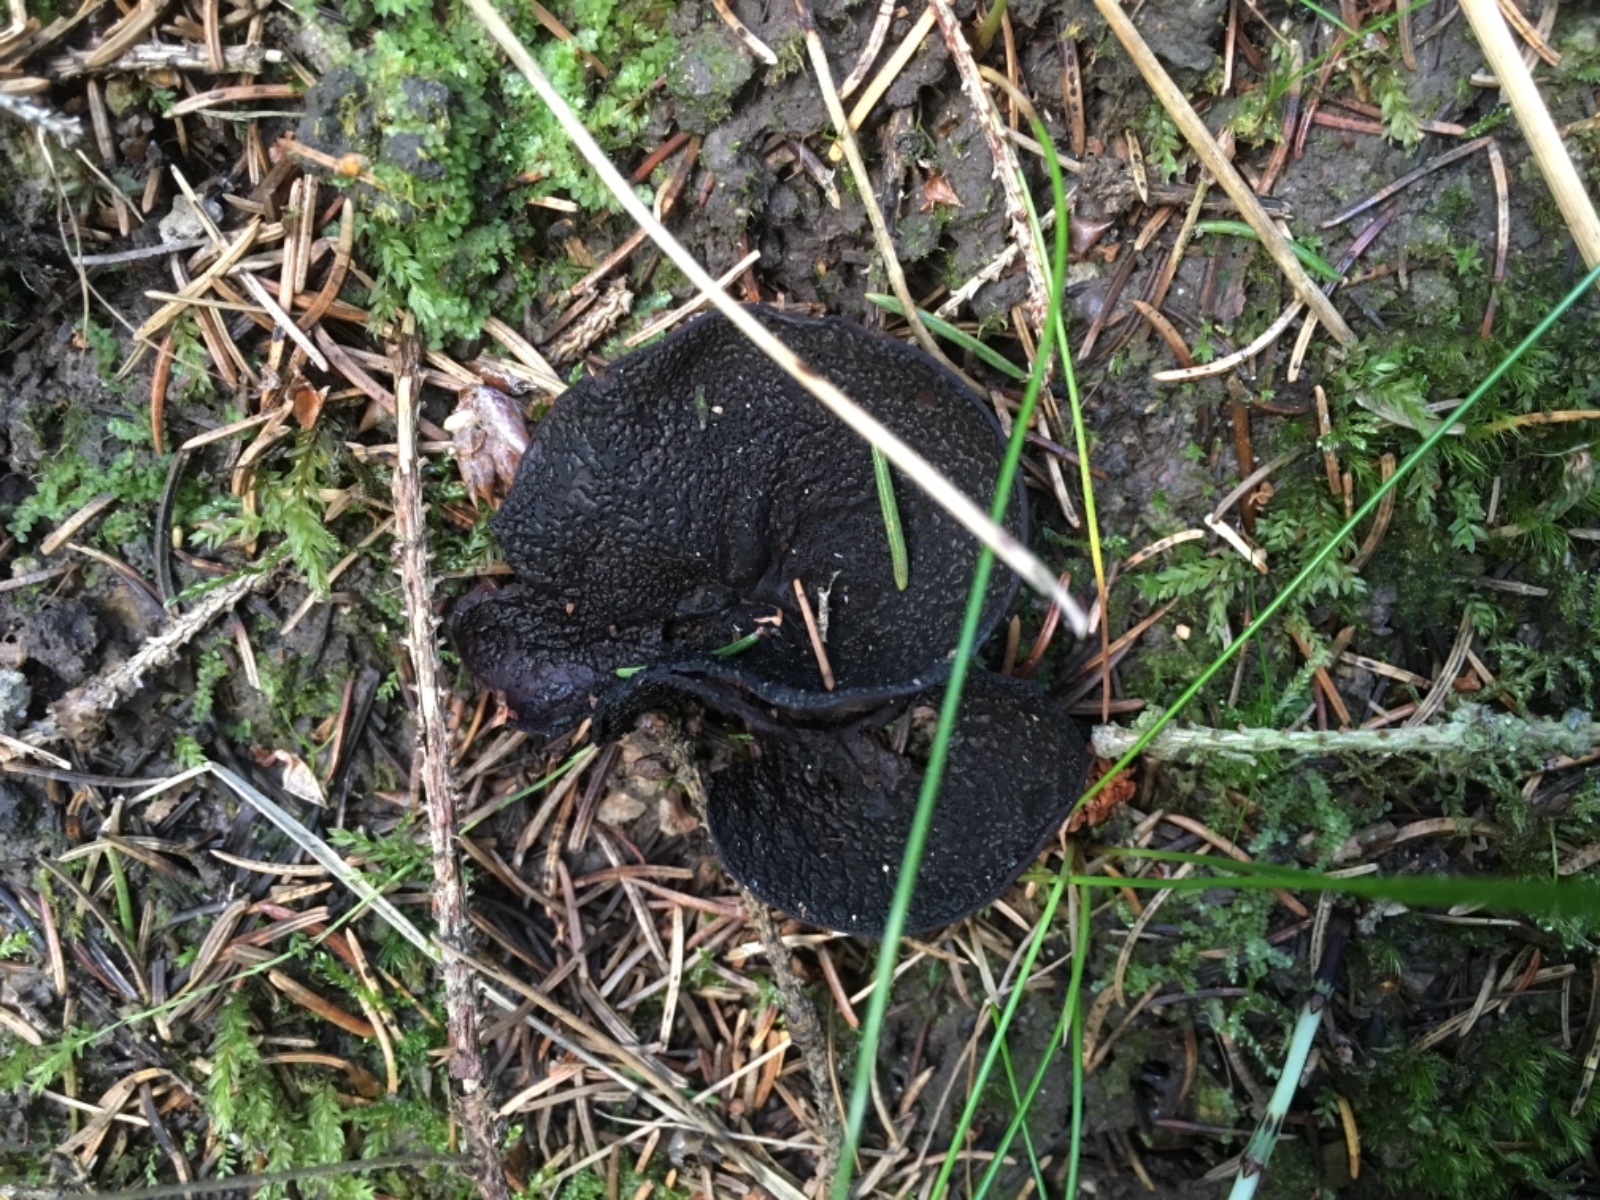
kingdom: Fungi
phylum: Ascomycota
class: Pezizomycetes
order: Pezizales
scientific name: Pezizales
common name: bægersvampordenen
